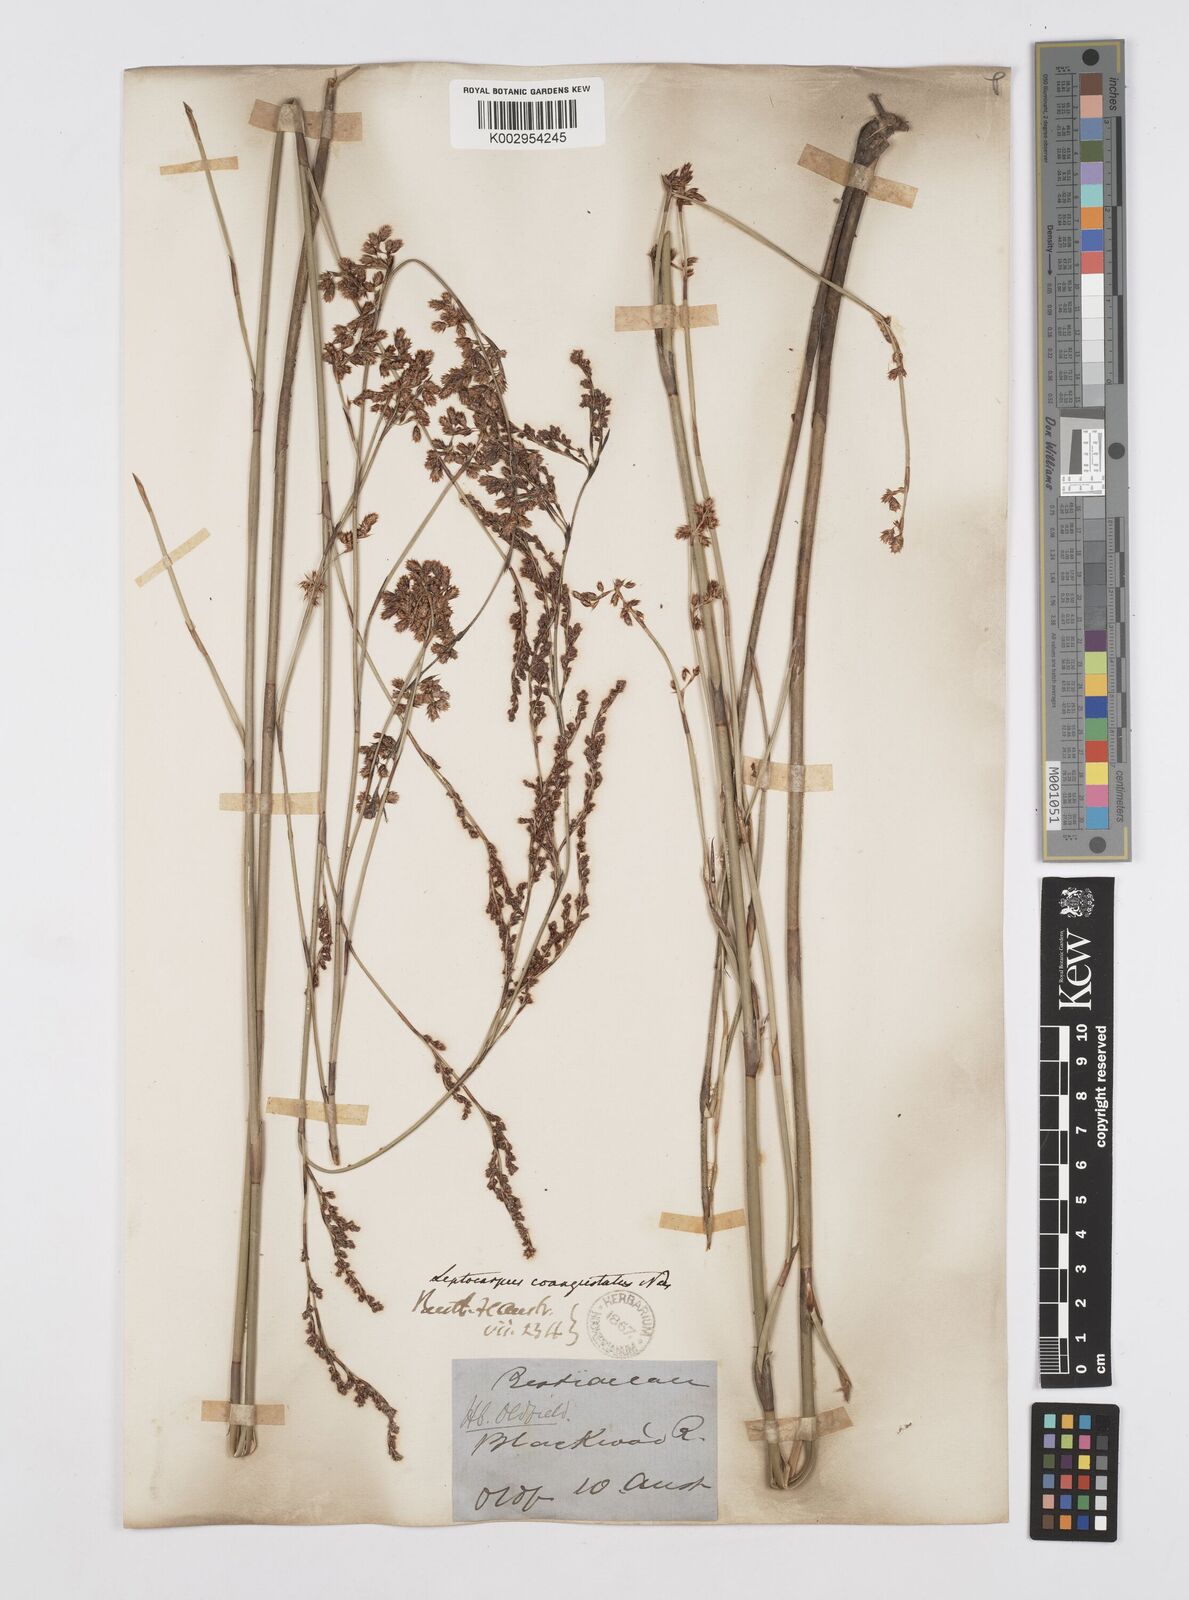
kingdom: Plantae
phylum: Tracheophyta
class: Liliopsida
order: Poales
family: Restionaceae
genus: Leptocarpus
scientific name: Leptocarpus coangustatus
